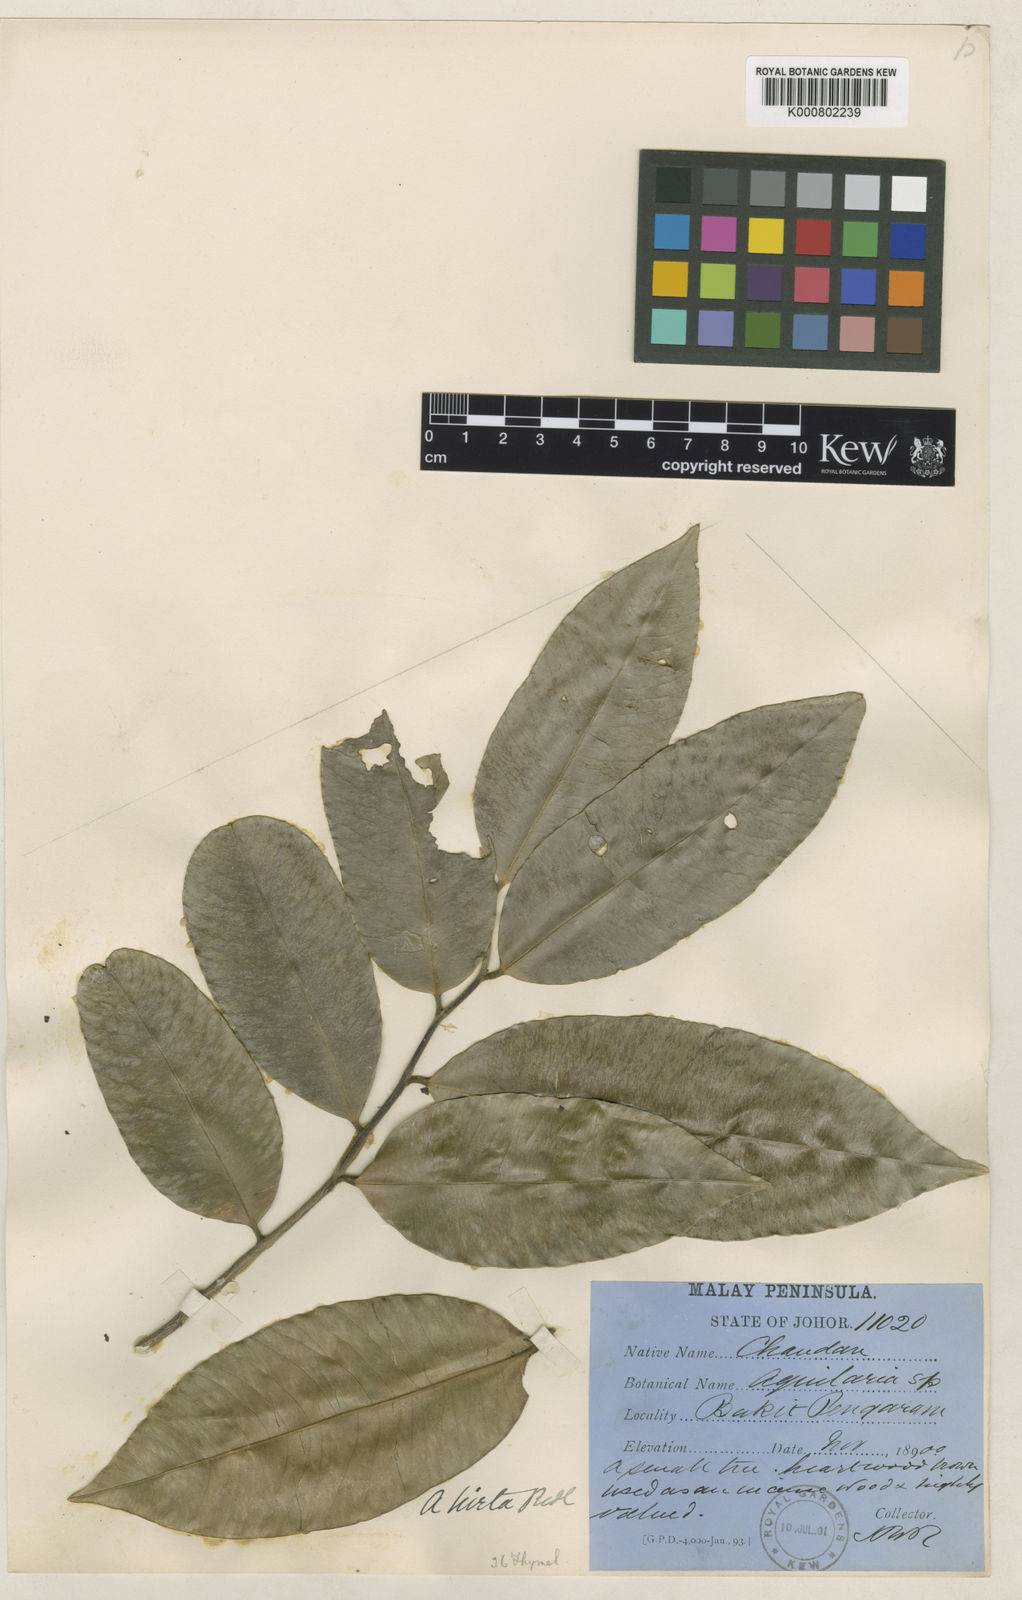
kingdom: Plantae
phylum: Tracheophyta
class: Magnoliopsida
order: Malvales
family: Thymelaeaceae
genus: Aquilaria
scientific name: Aquilaria hirta
